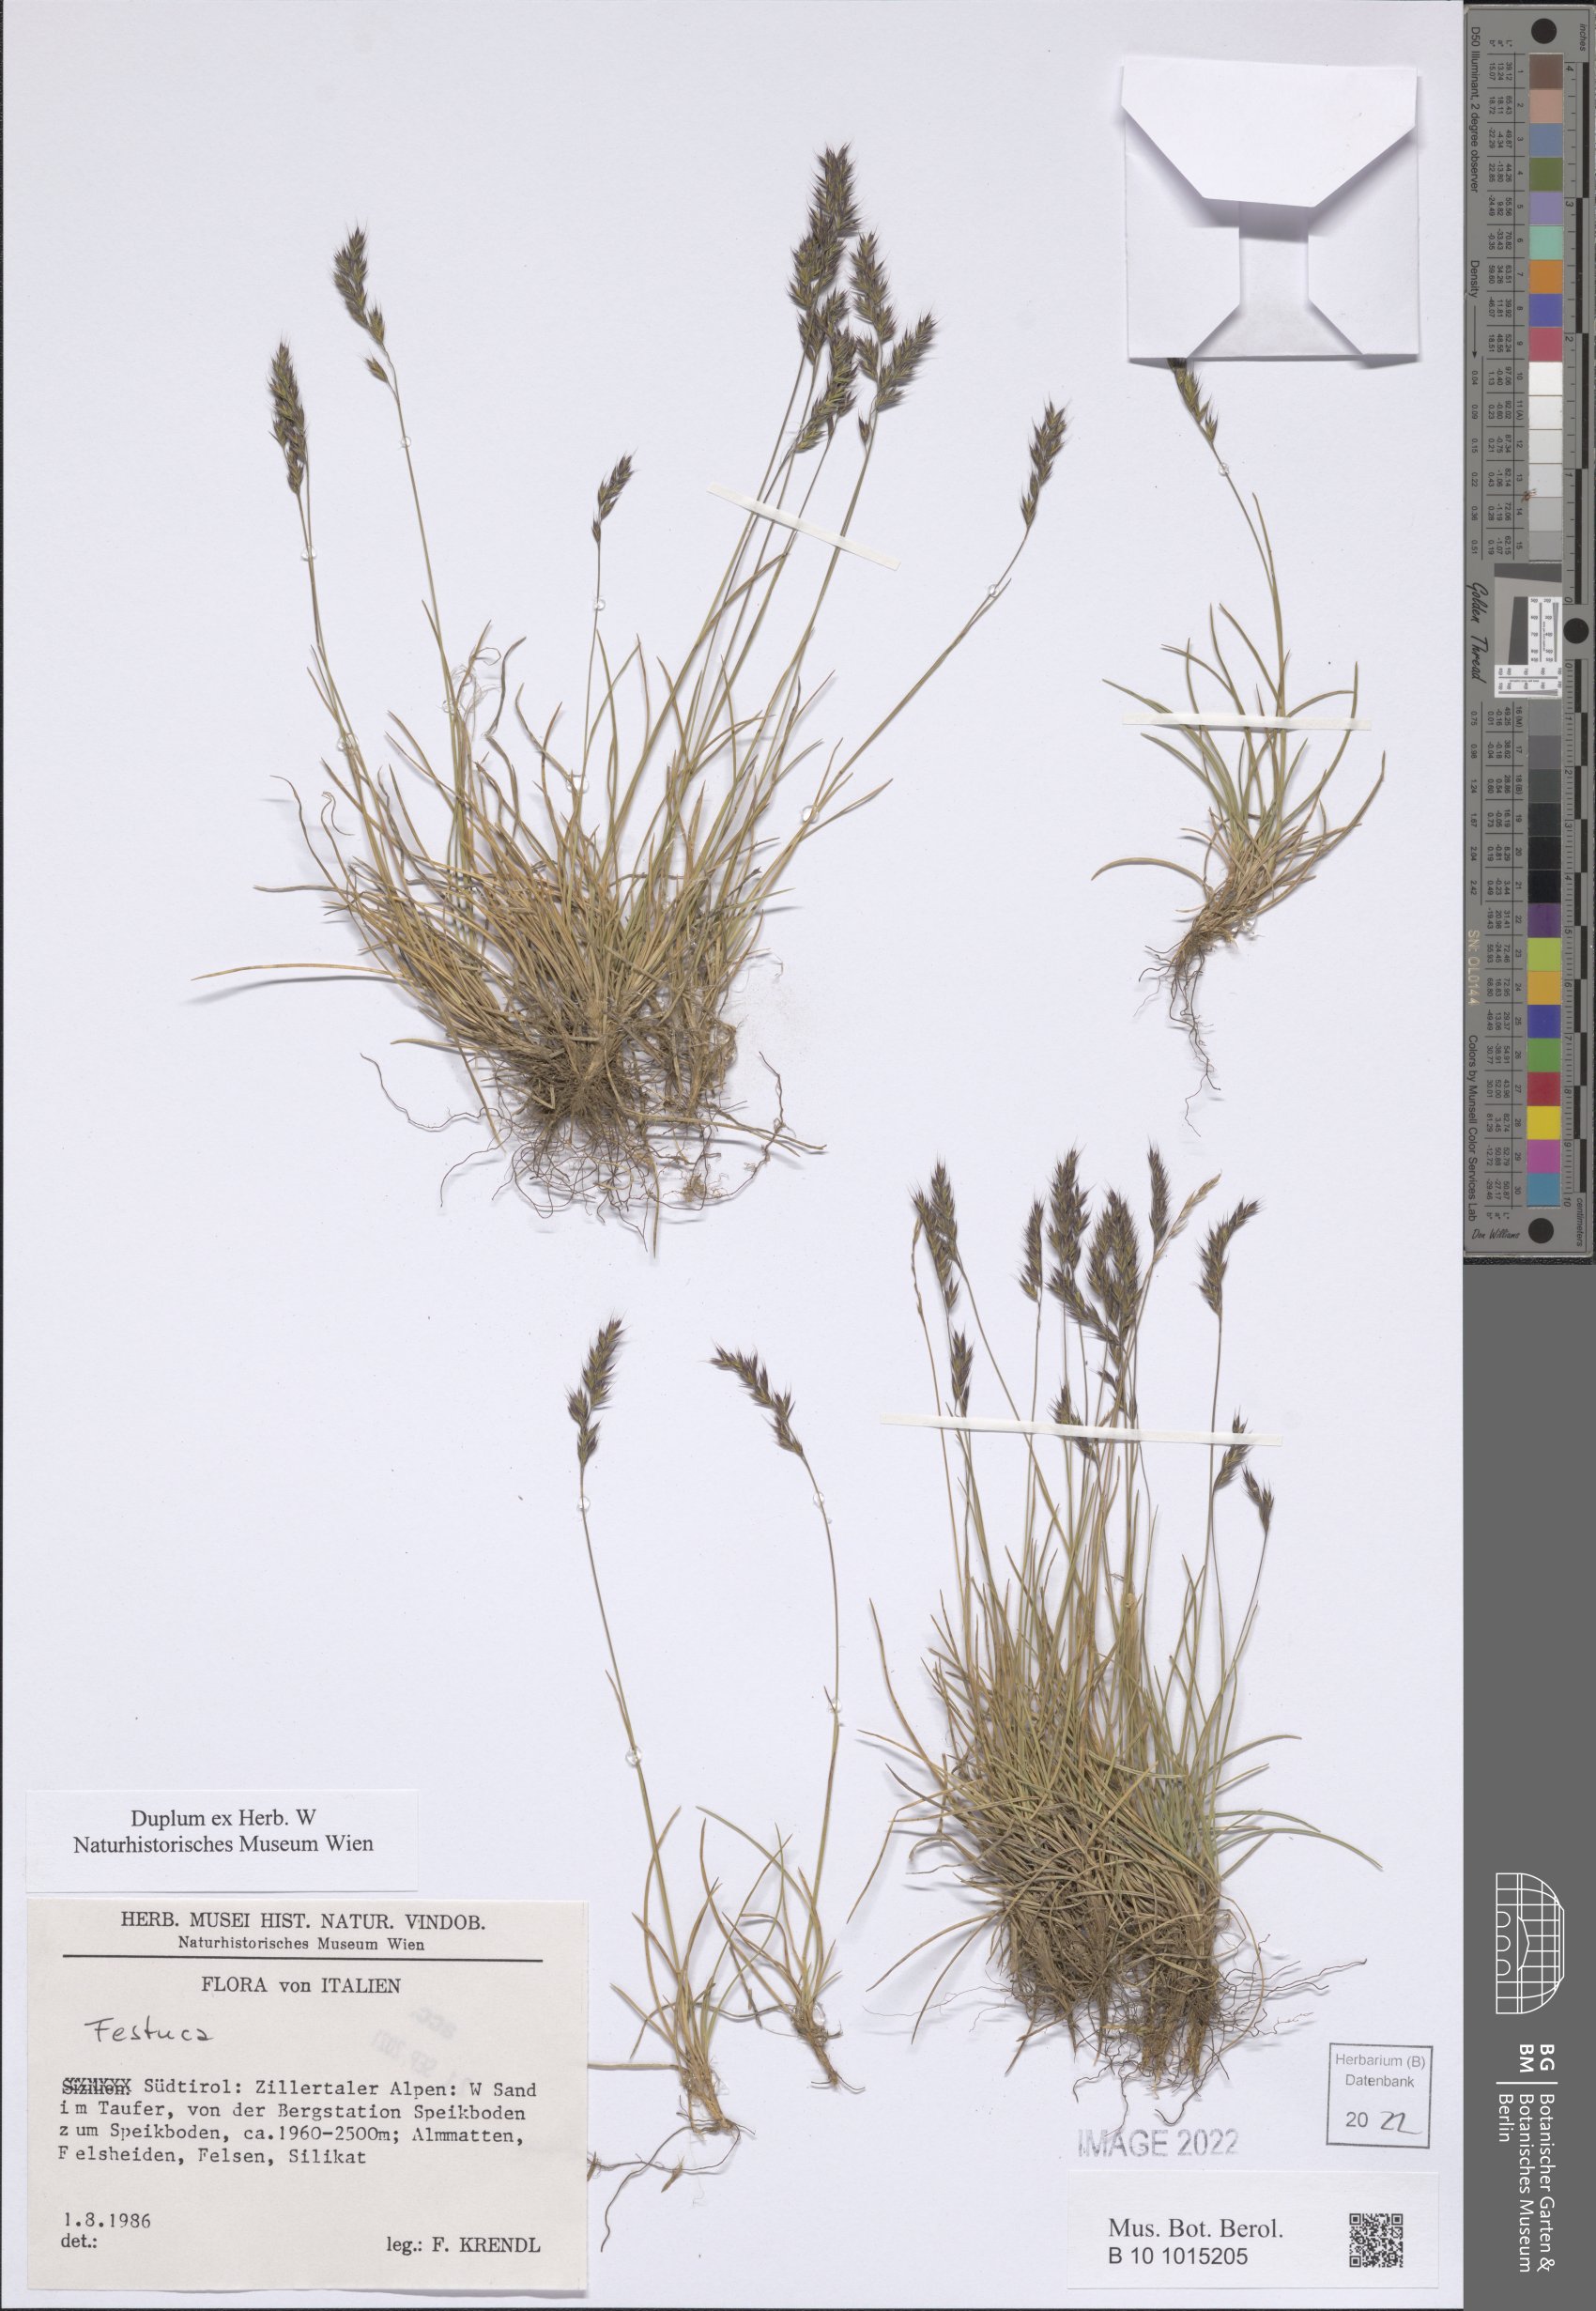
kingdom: Plantae
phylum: Tracheophyta
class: Liliopsida
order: Poales
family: Poaceae
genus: Festuca
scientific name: Festuca
